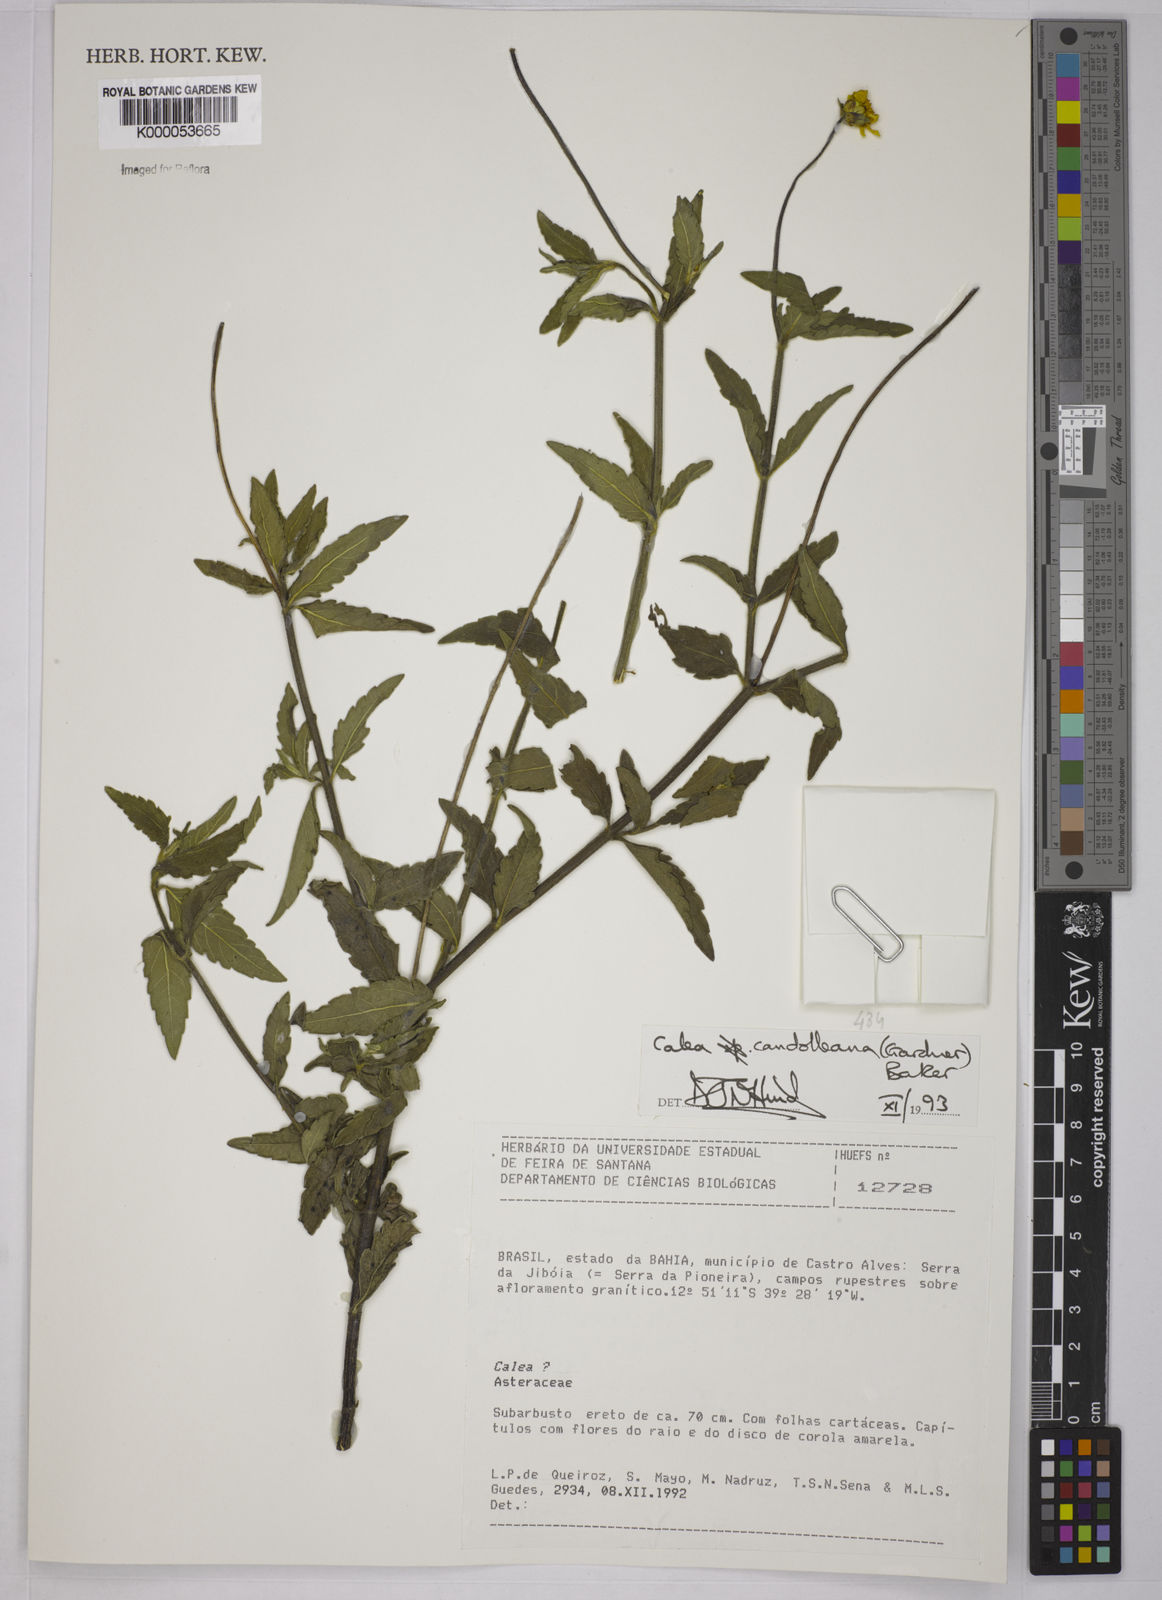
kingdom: Plantae
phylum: Tracheophyta
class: Magnoliopsida
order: Asterales
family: Asteraceae
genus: Calea
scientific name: Calea candolleana
